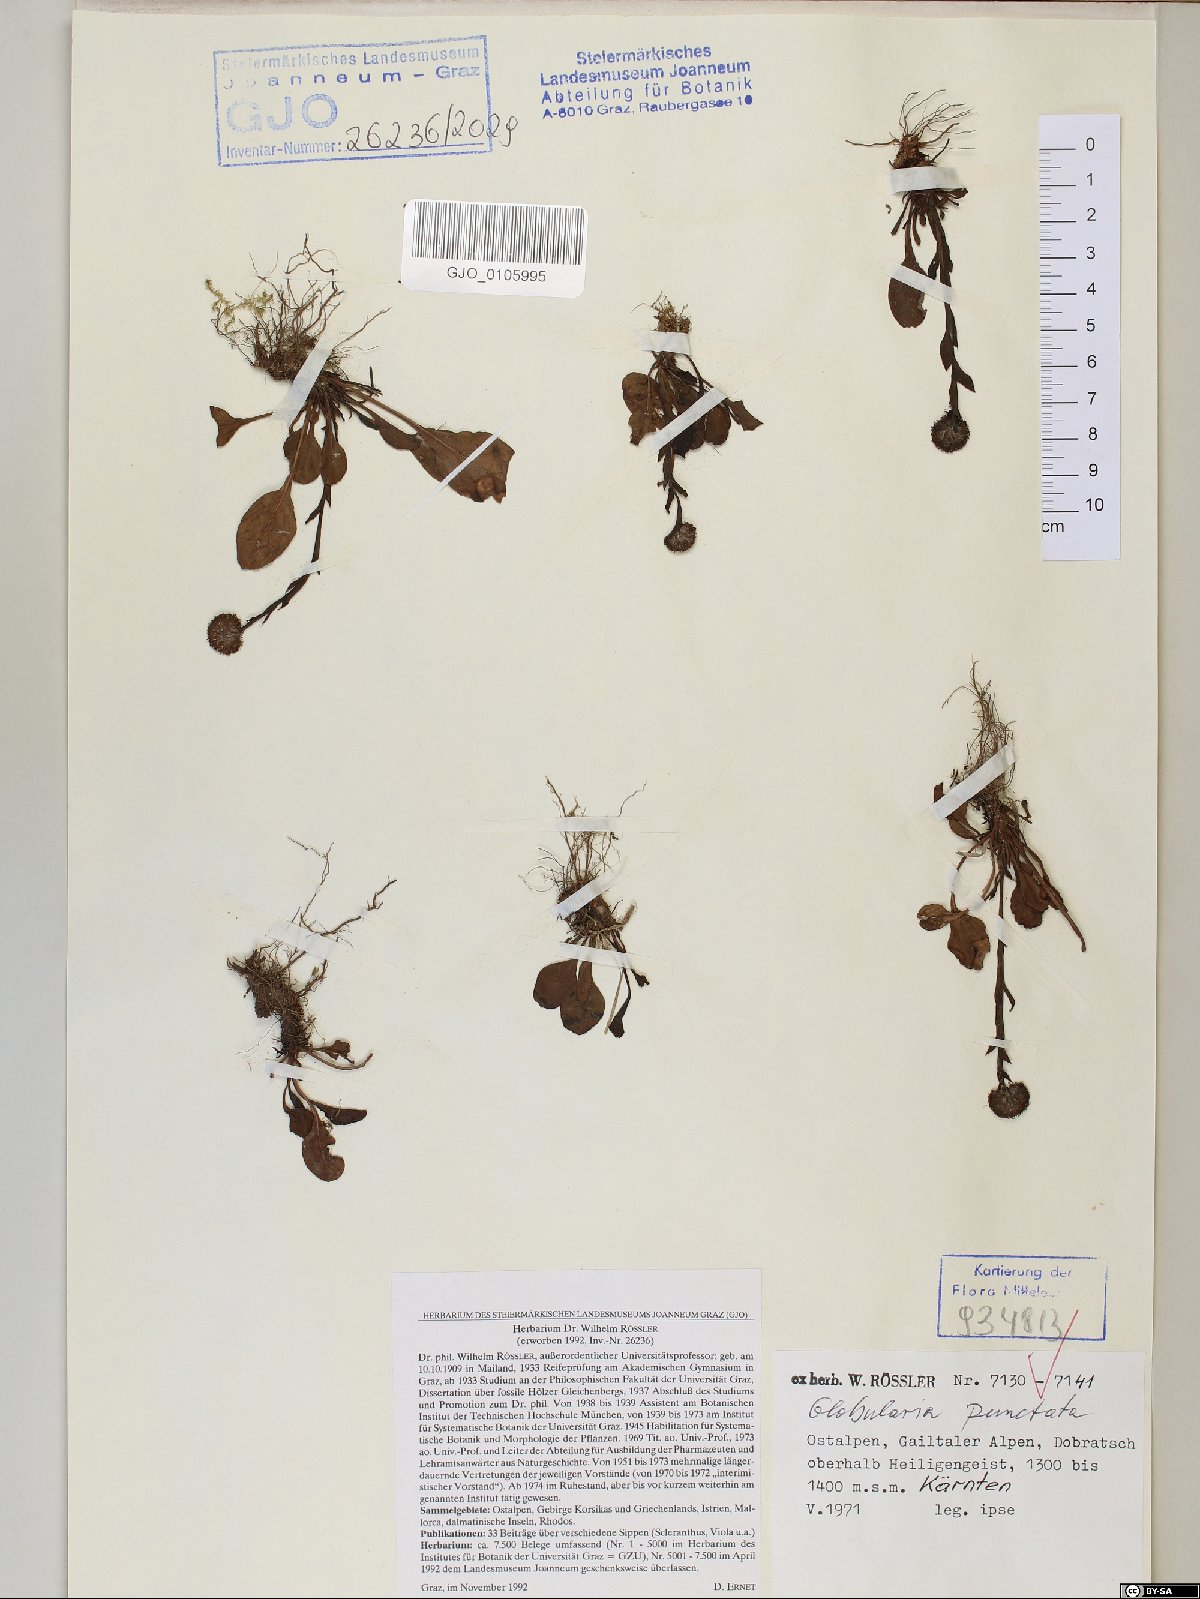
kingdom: Plantae
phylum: Tracheophyta
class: Magnoliopsida
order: Lamiales
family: Plantaginaceae
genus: Globularia
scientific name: Globularia bisnagarica
